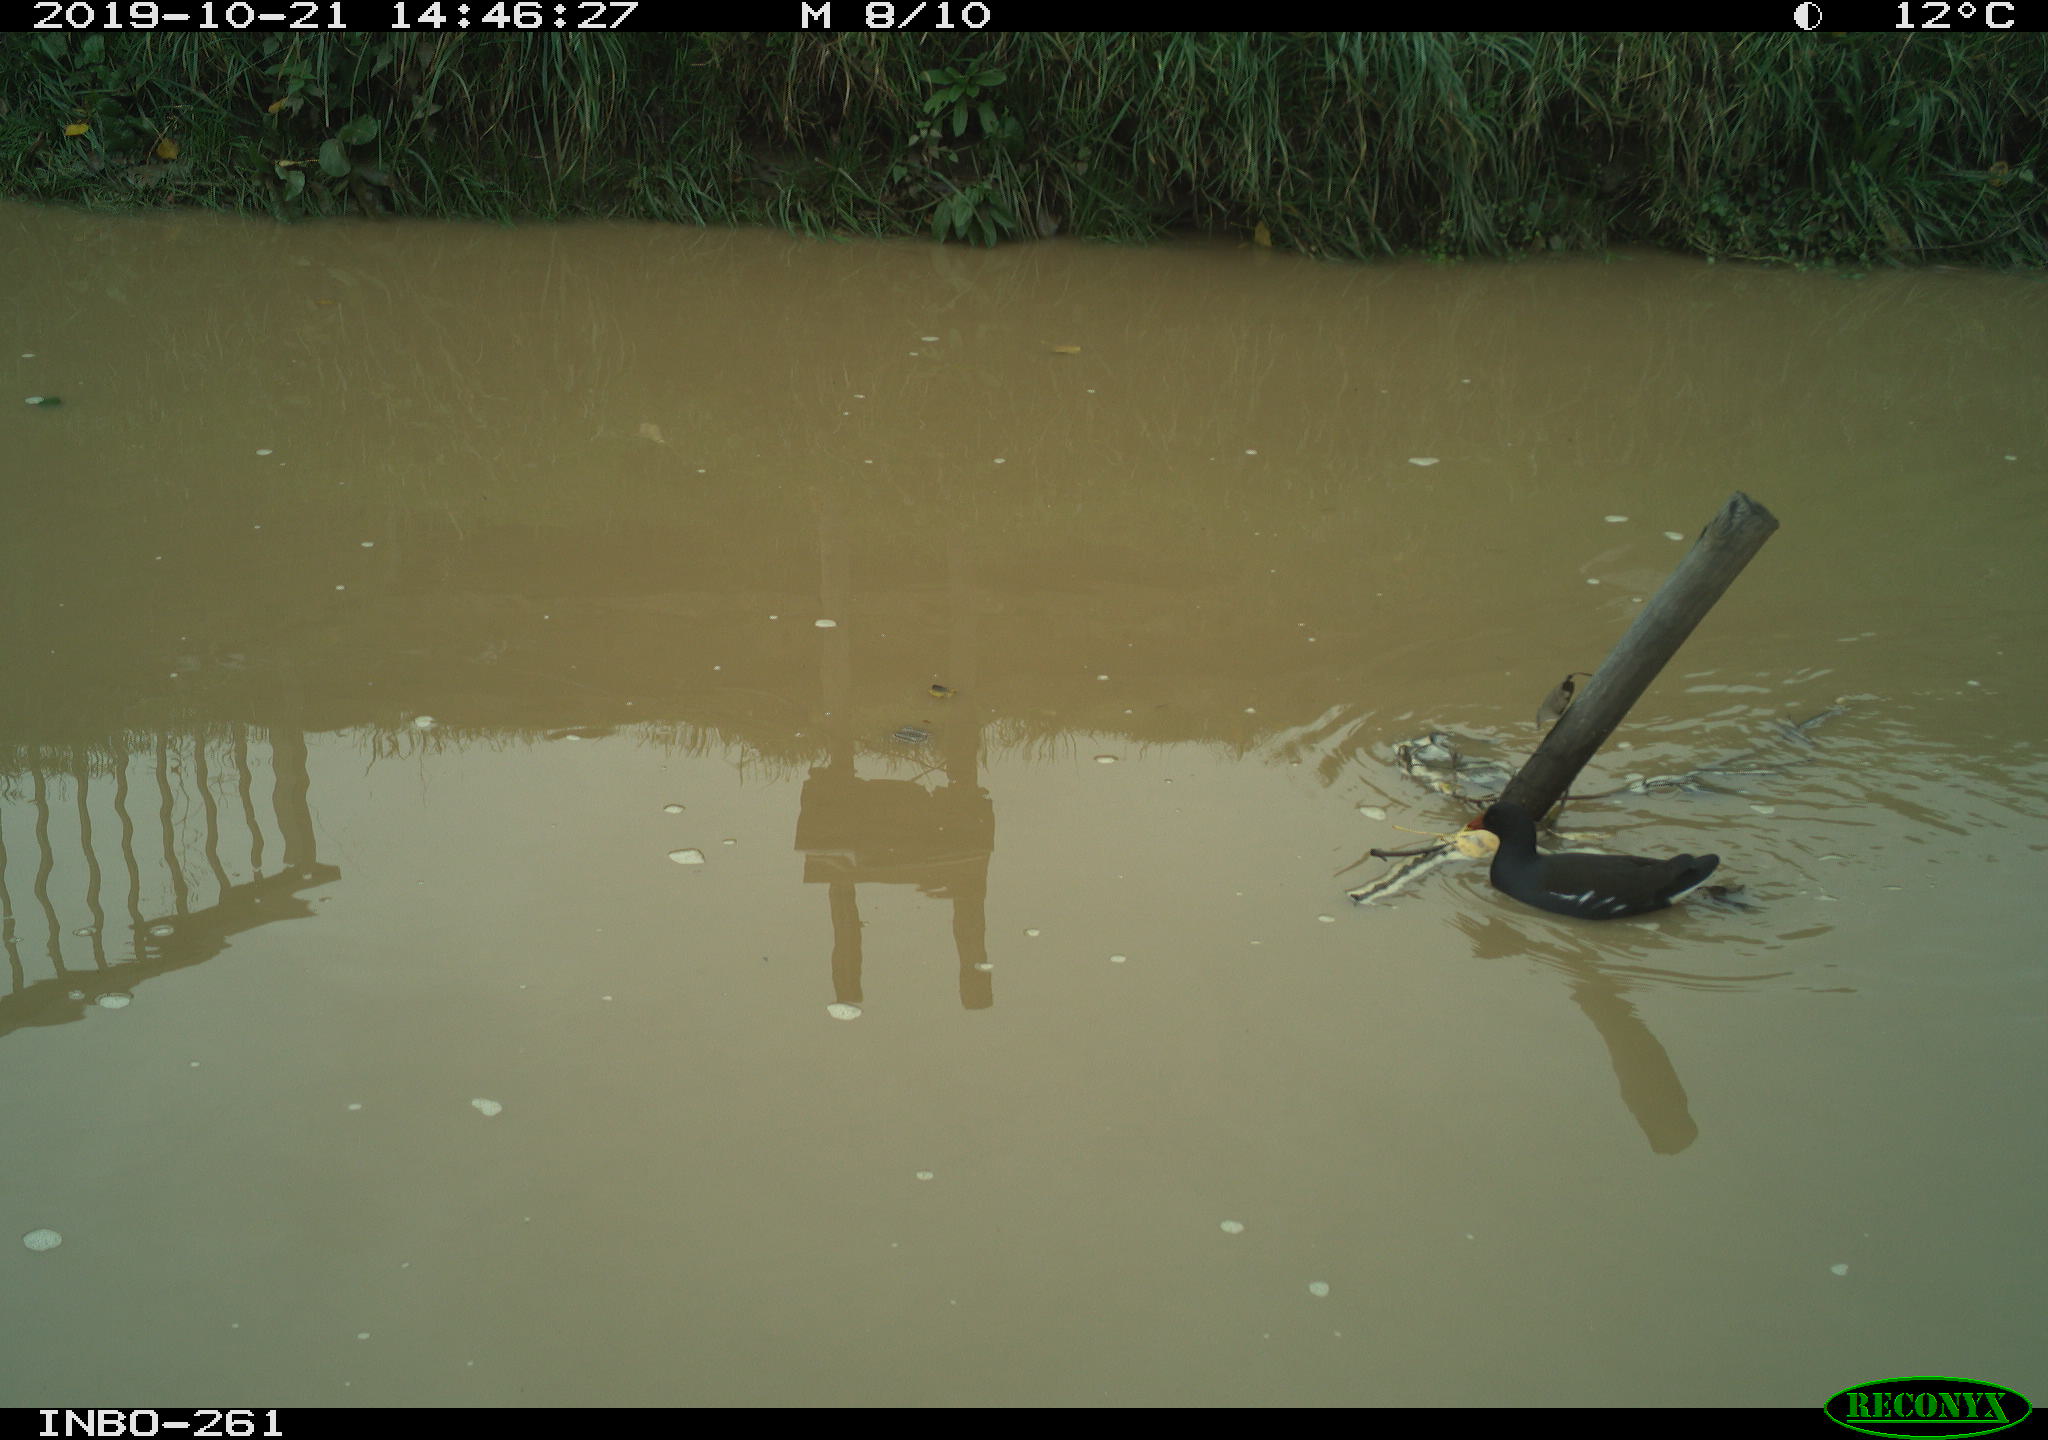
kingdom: Animalia
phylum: Chordata
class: Aves
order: Gruiformes
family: Rallidae
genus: Gallinula
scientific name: Gallinula chloropus
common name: Common moorhen
